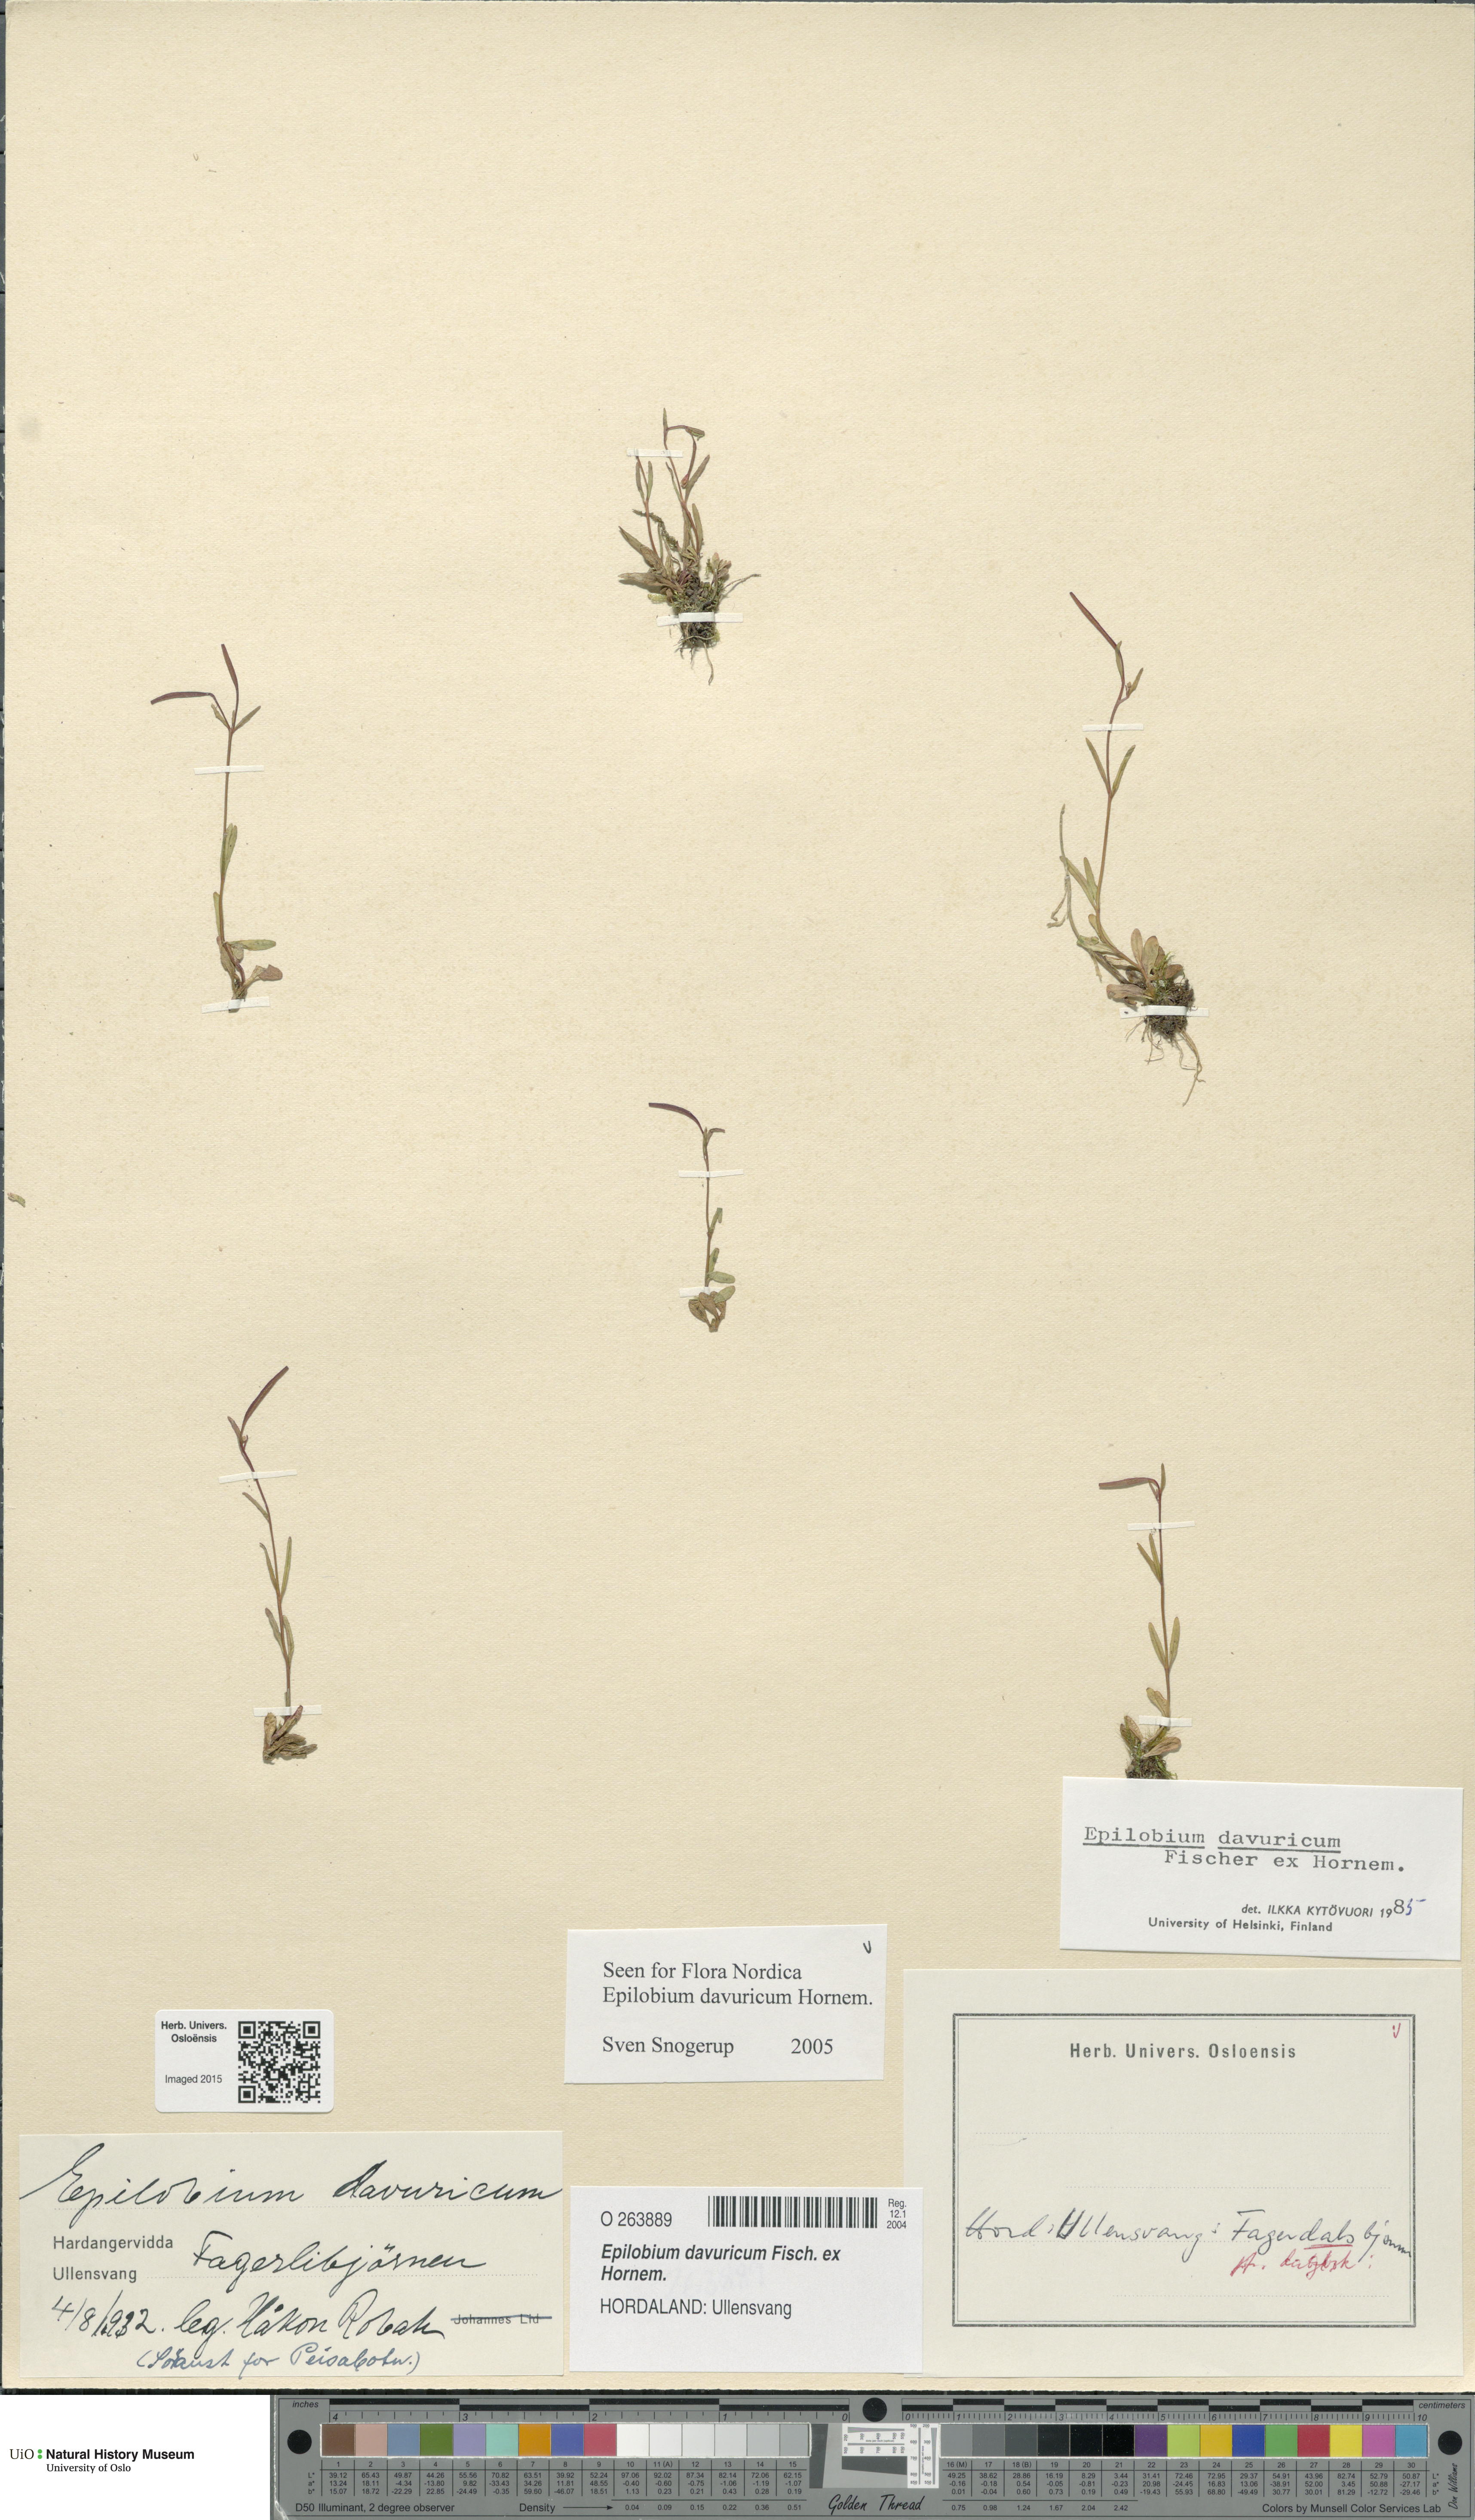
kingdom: Plantae
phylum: Tracheophyta
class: Magnoliopsida
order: Myrtales
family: Onagraceae
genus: Epilobium
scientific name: Epilobium davuricum
